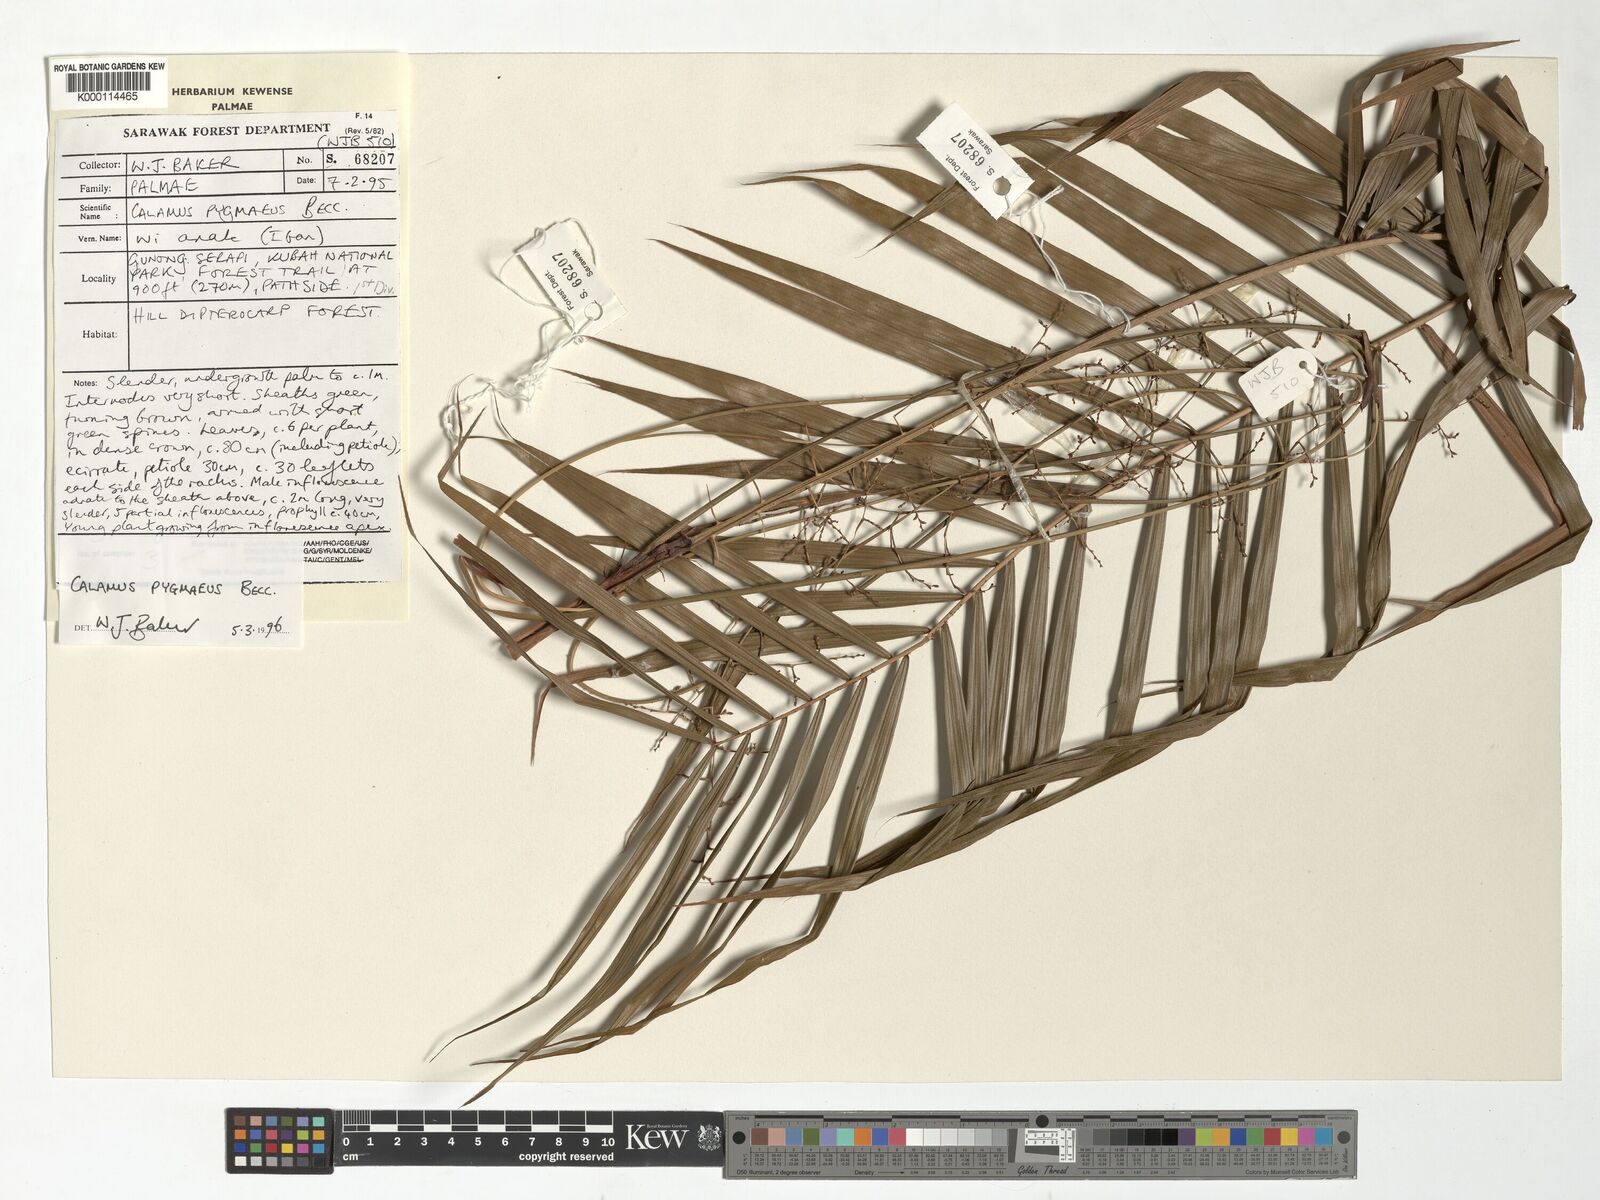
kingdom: Plantae
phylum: Tracheophyta
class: Liliopsida
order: Arecales
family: Arecaceae
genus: Calamus
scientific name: Calamus pygmaeus
